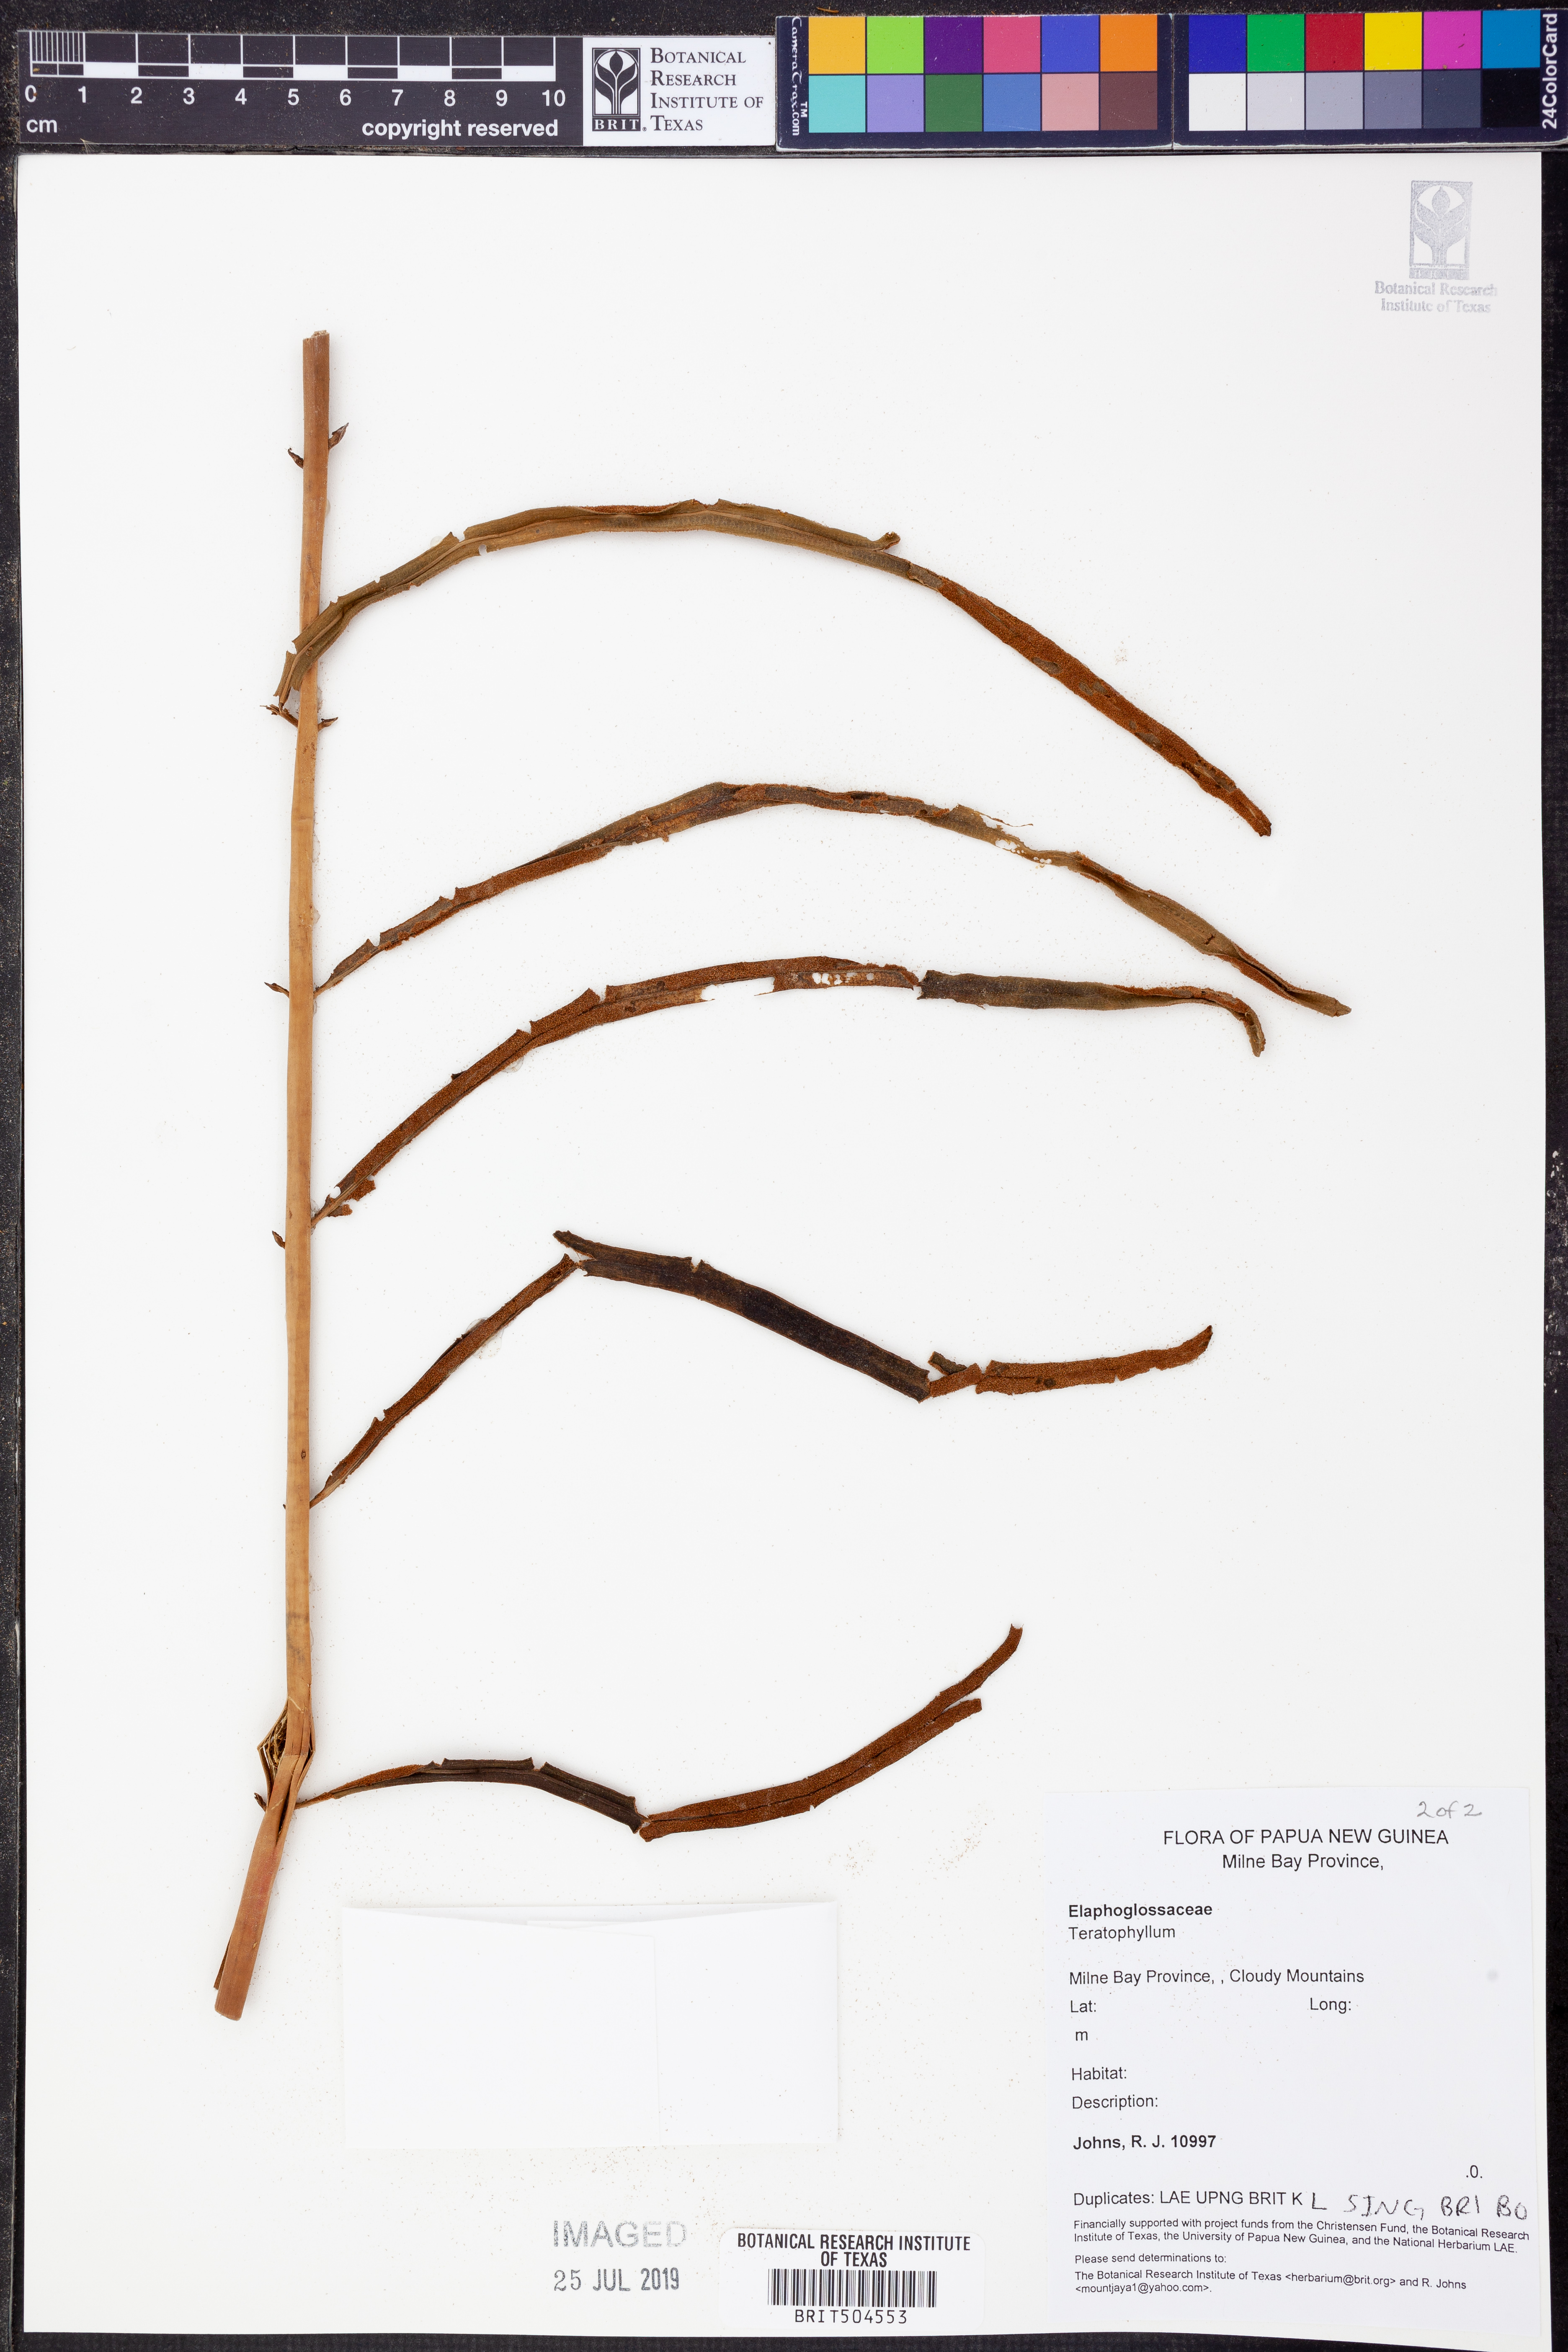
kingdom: Plantae
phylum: Tracheophyta
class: Polypodiopsida
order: Polypodiales
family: Dryopteridaceae
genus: Teratophyllum
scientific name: Teratophyllum
